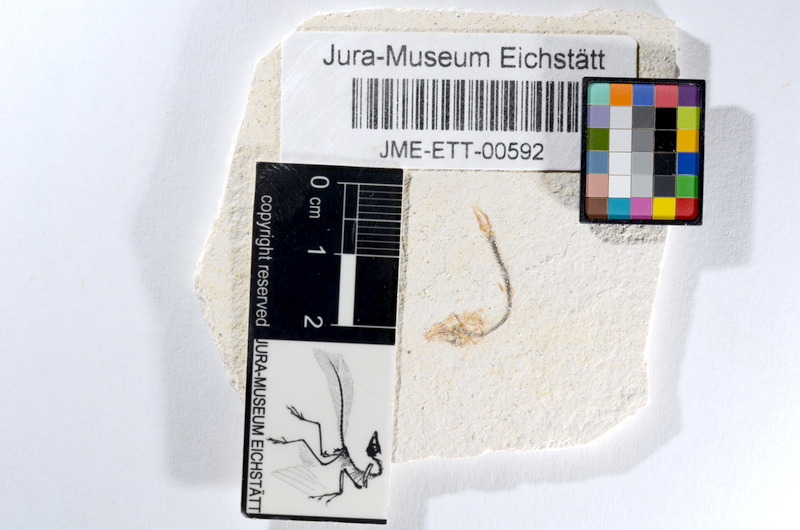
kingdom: Animalia
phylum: Chordata
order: Salmoniformes
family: Orthogonikleithridae
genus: Orthogonikleithrus
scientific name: Orthogonikleithrus hoelli
